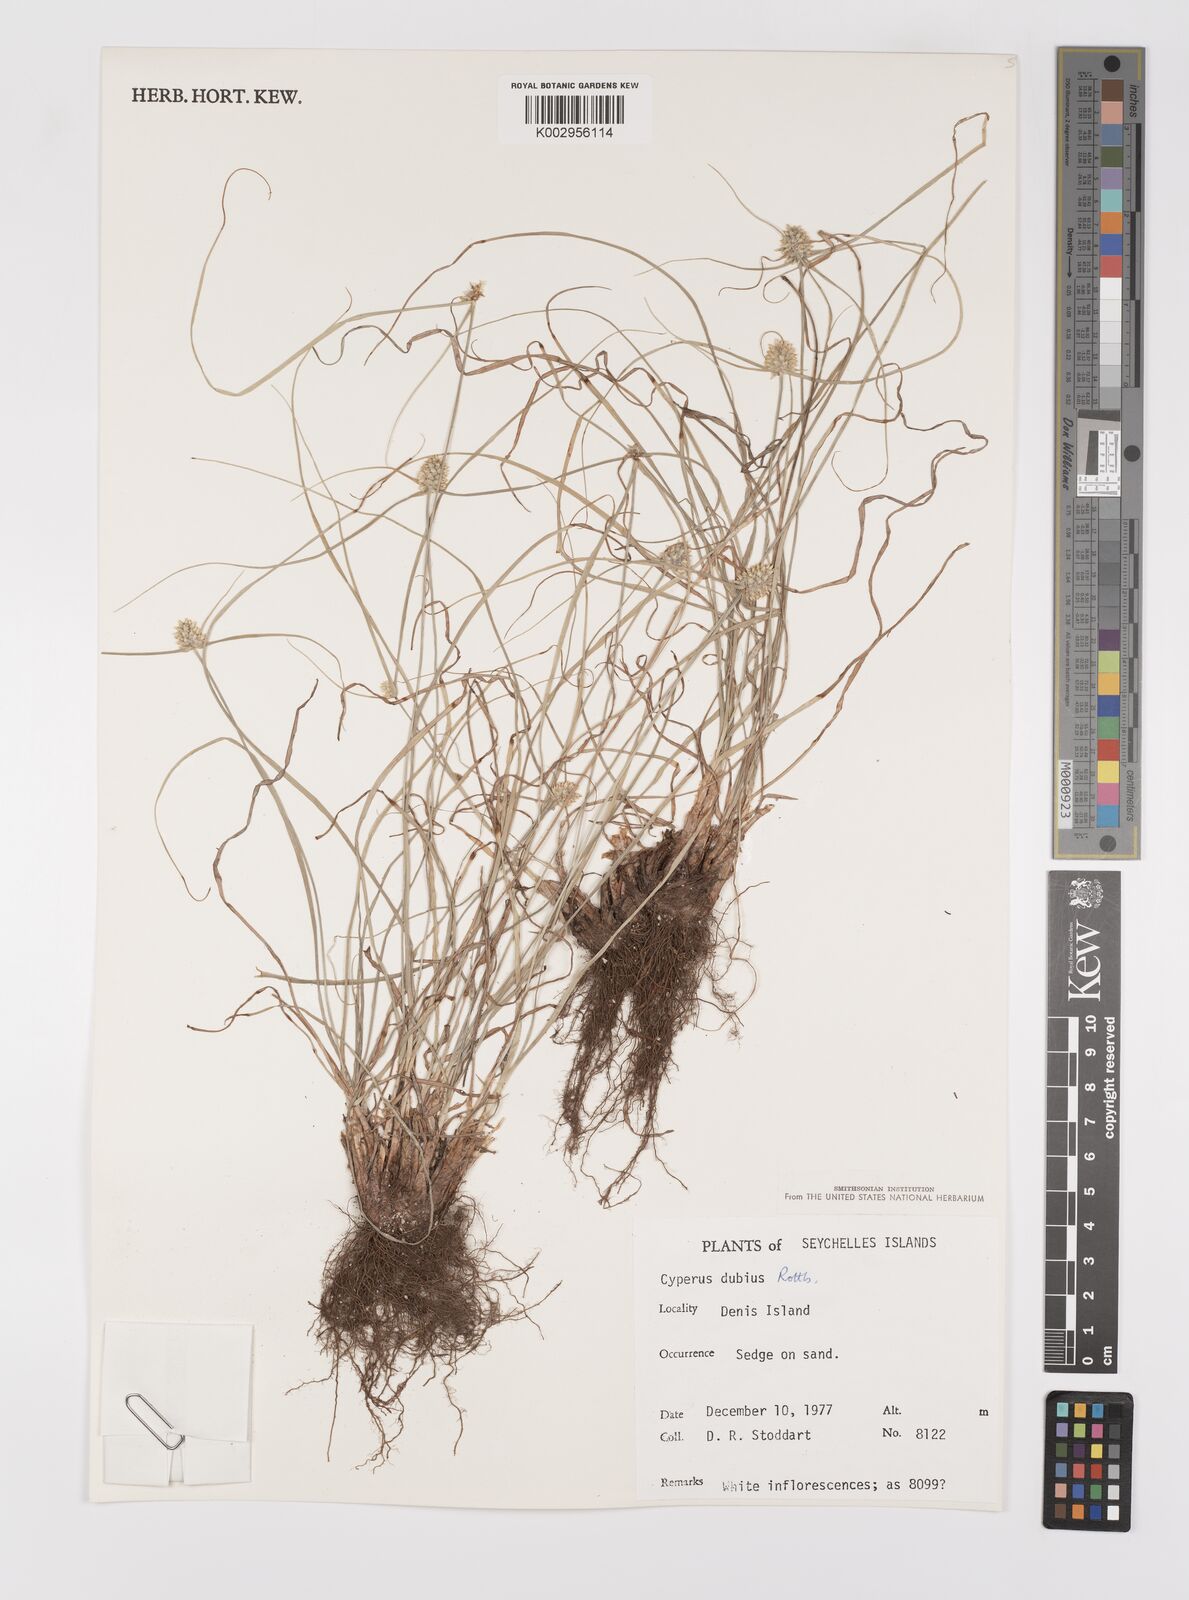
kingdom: Plantae
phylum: Tracheophyta
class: Liliopsida
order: Poales
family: Cyperaceae
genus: Cyperus
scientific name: Cyperus dubius
